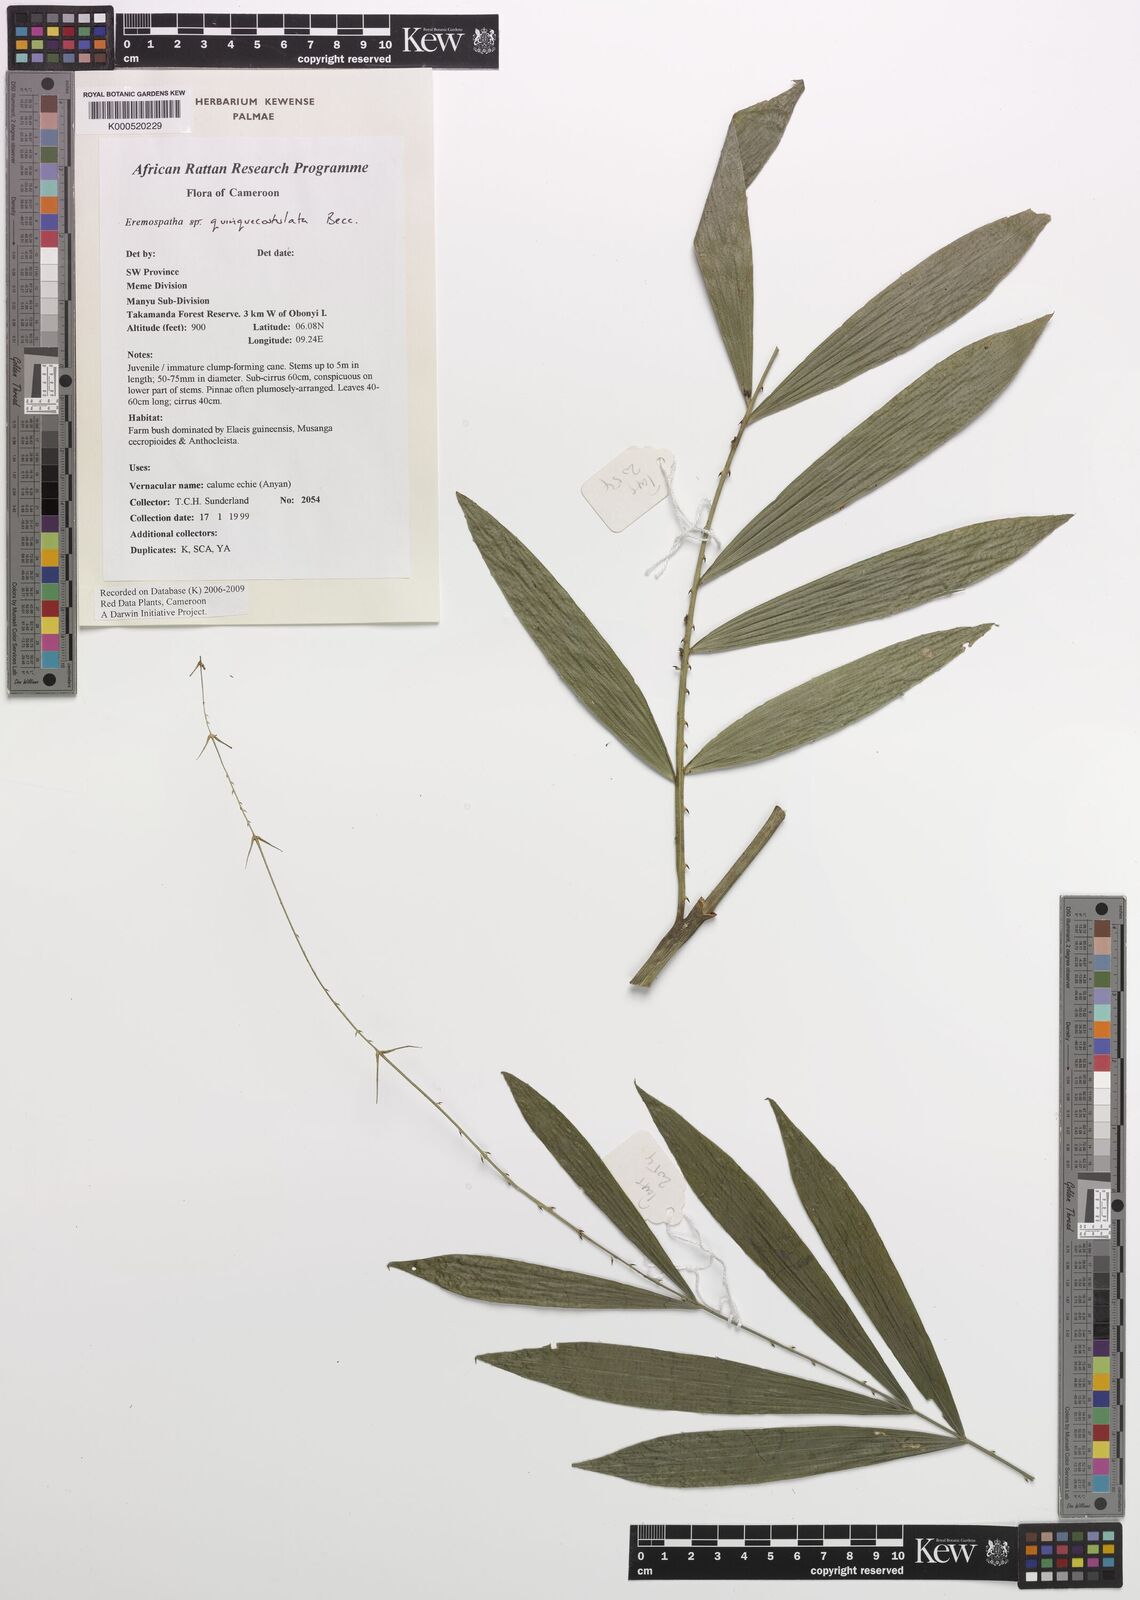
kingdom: Plantae
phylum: Tracheophyta
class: Liliopsida
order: Arecales
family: Arecaceae
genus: Eremospatha
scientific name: Eremospatha
